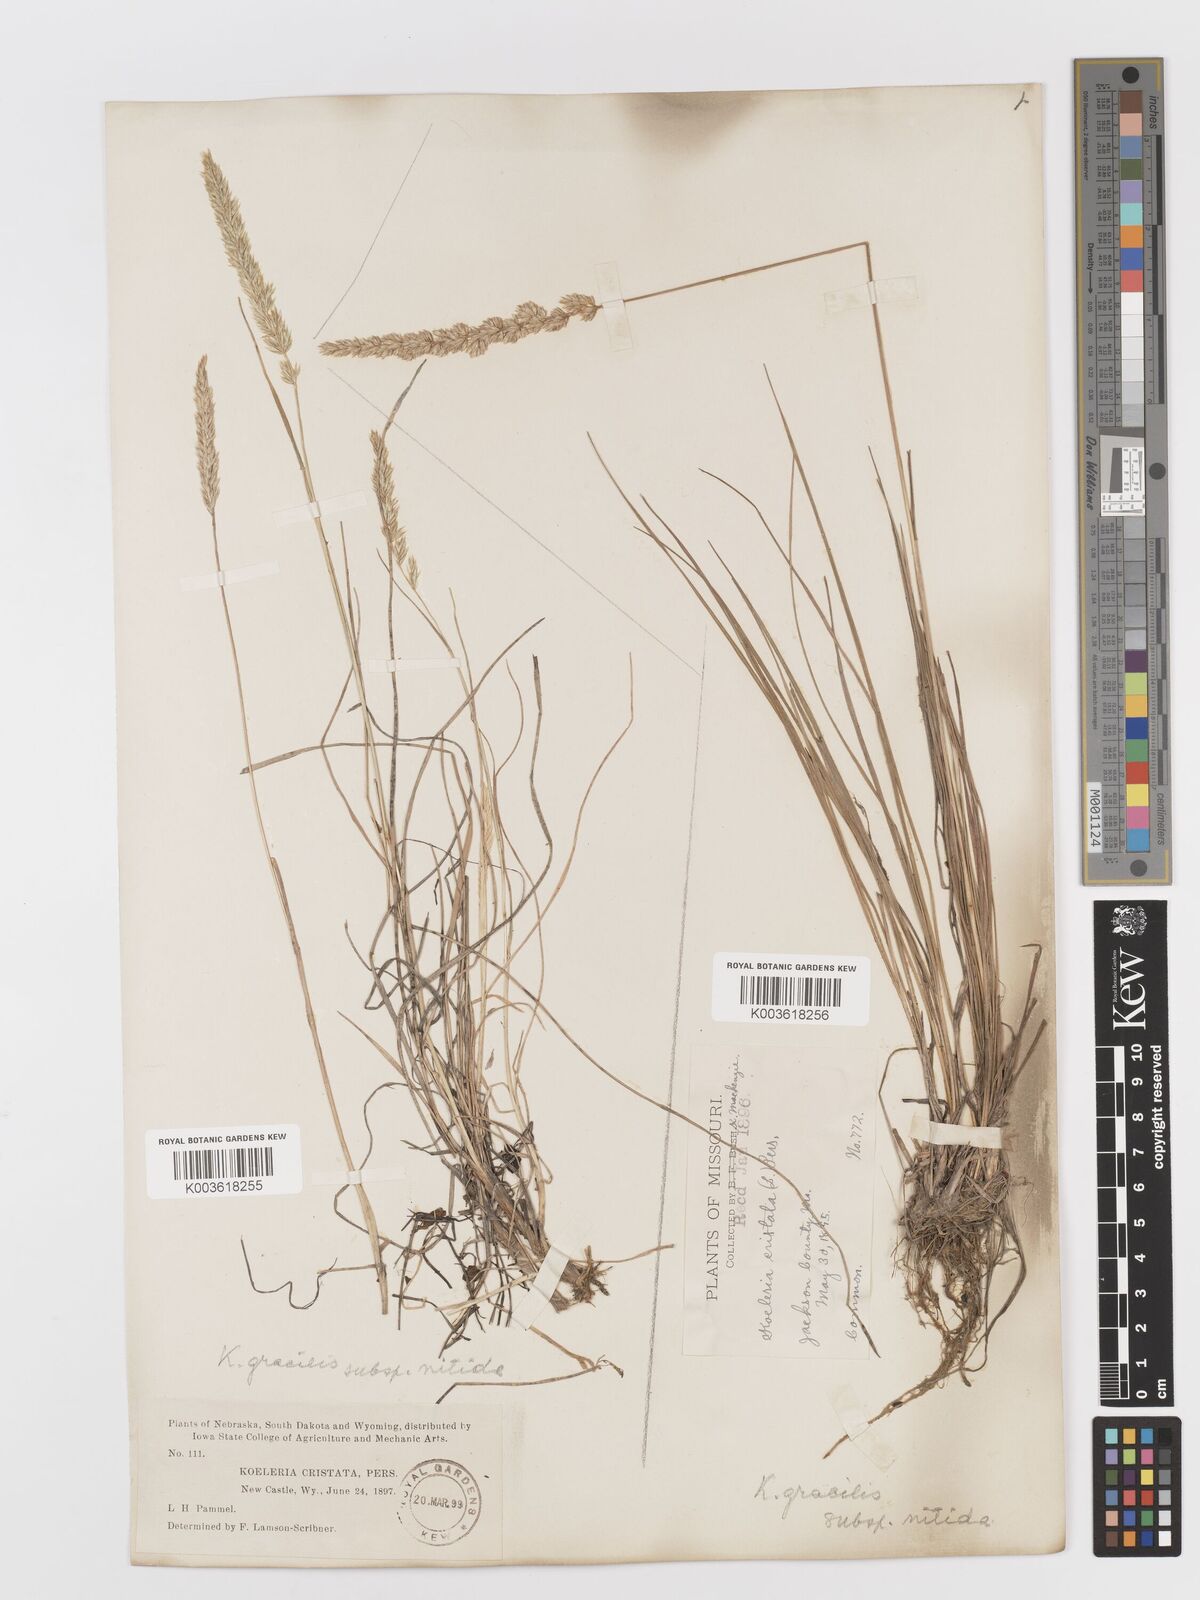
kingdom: Plantae
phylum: Tracheophyta
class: Liliopsida
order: Poales
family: Poaceae
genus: Koeleria
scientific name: Koeleria macrantha
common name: Crested hair-grass
